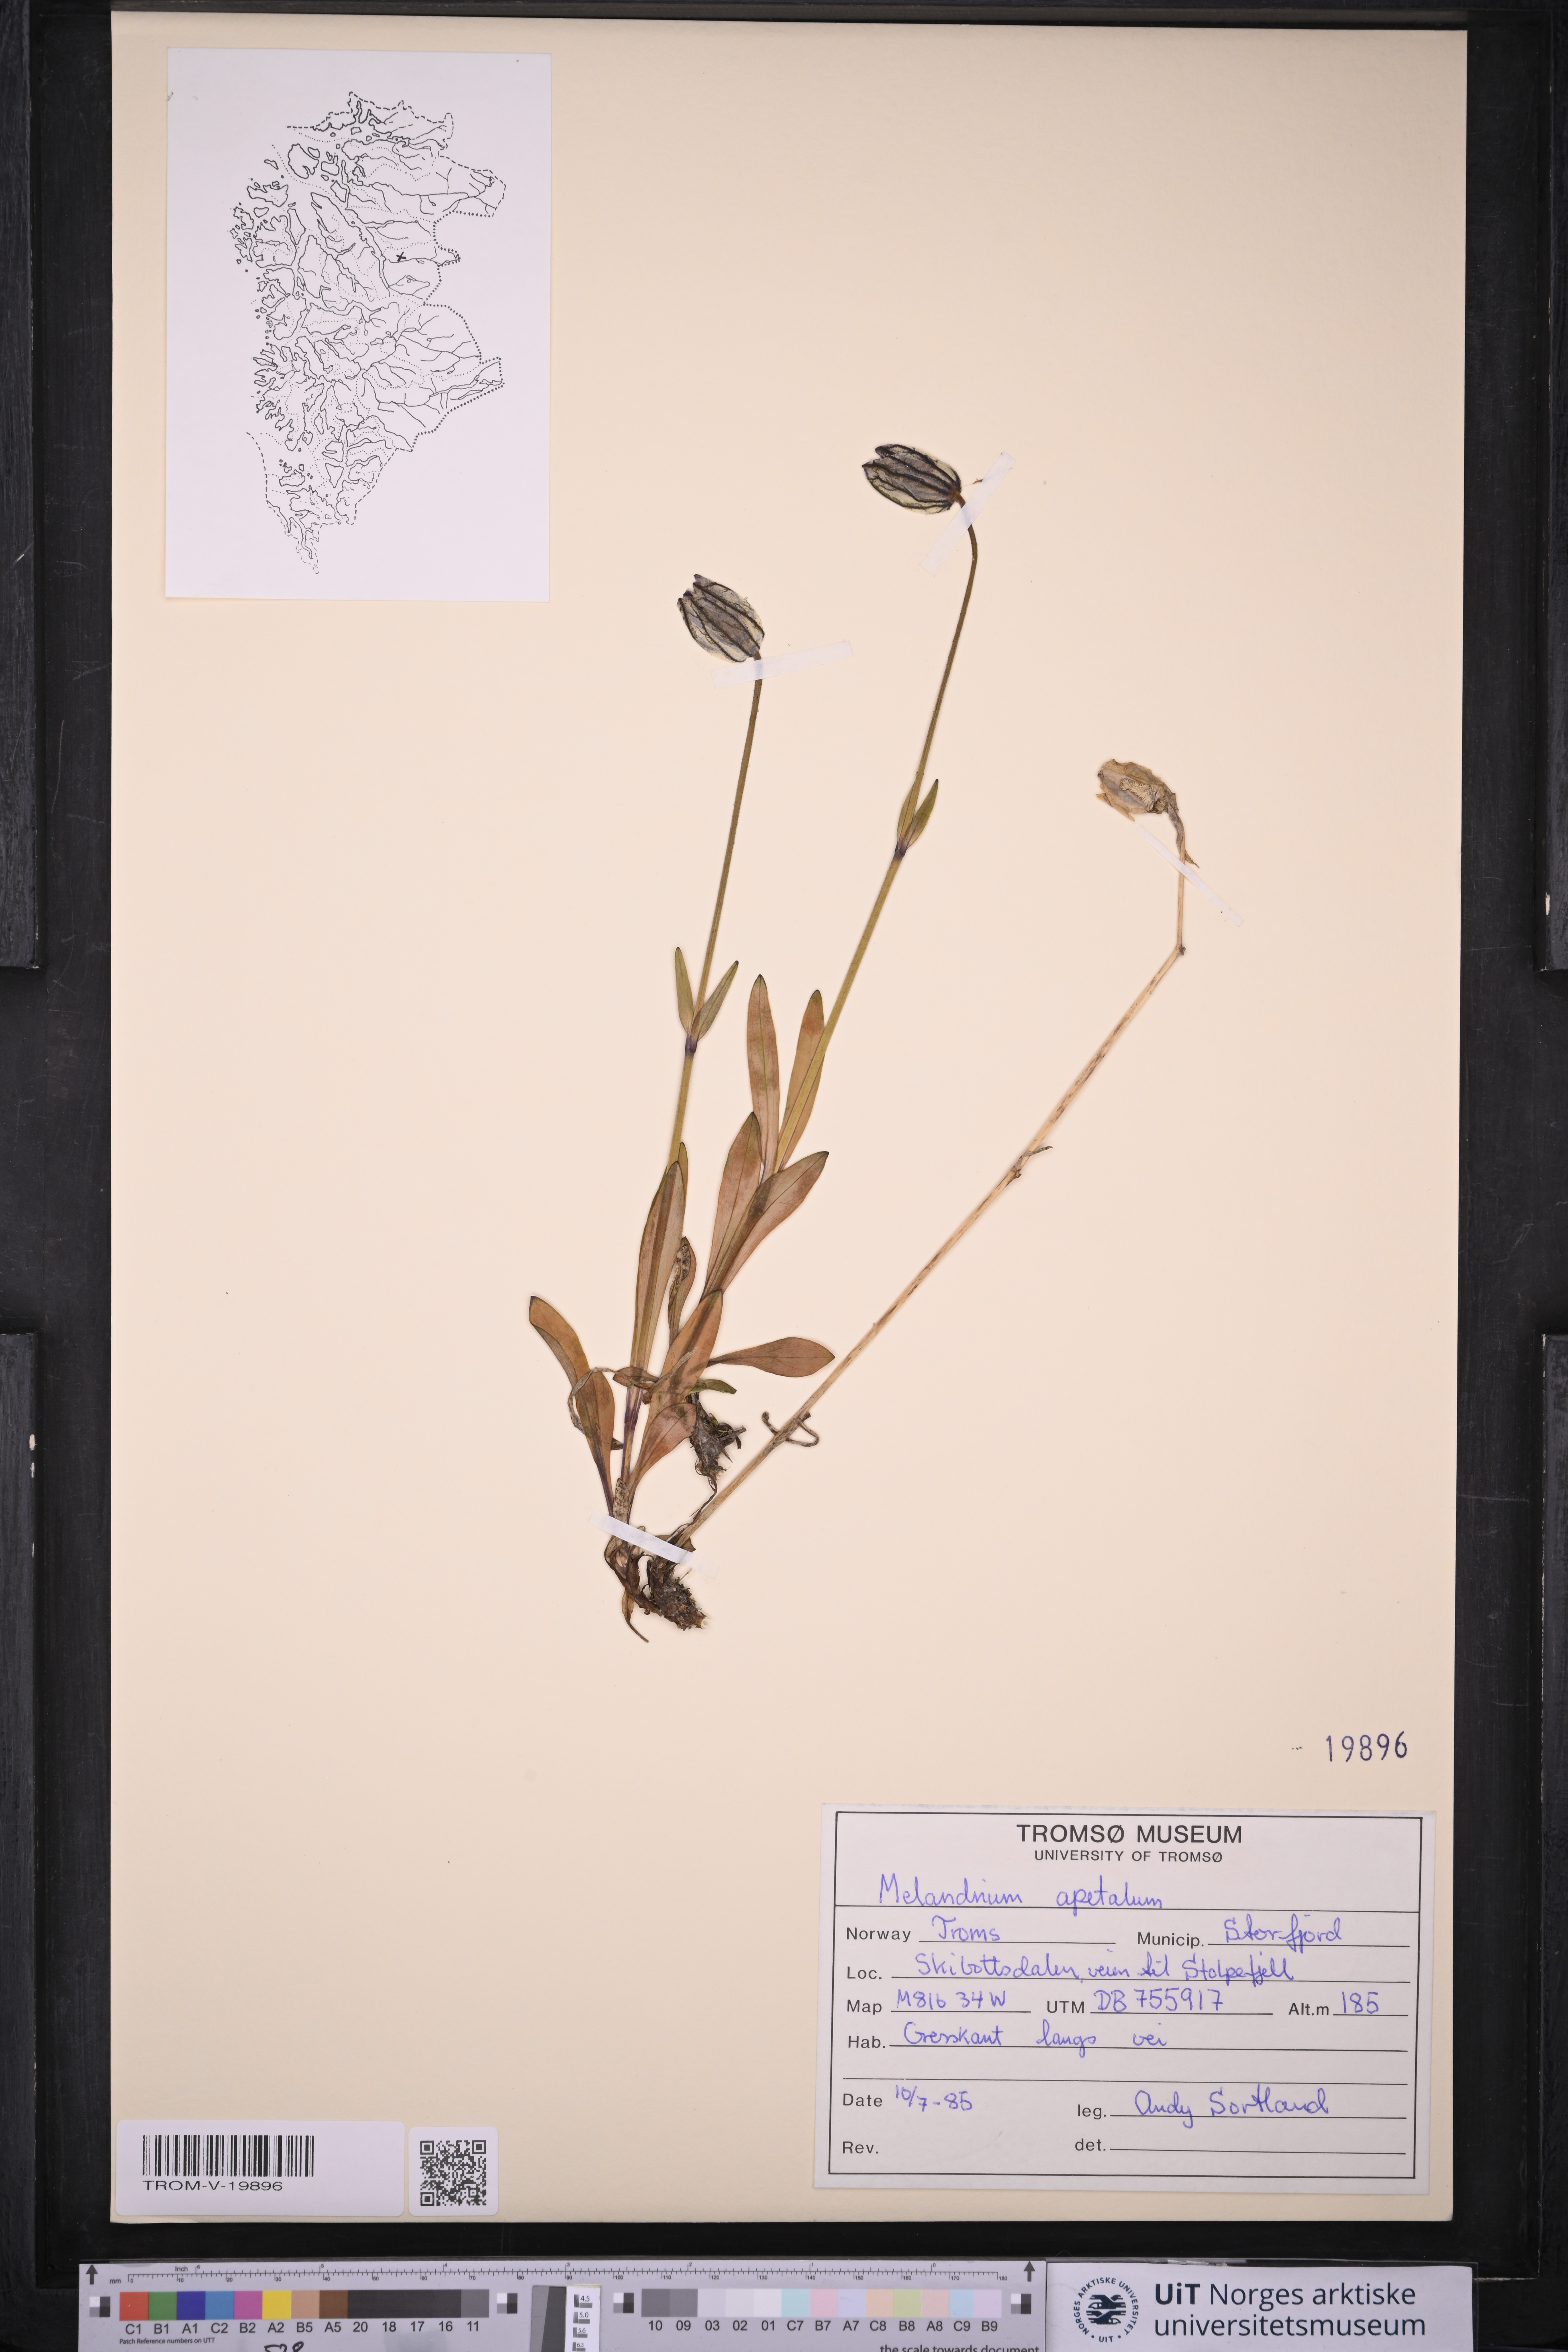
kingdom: Plantae
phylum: Tracheophyta
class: Magnoliopsida
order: Caryophyllales
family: Caryophyllaceae
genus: Silene
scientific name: Silene wahlbergella
